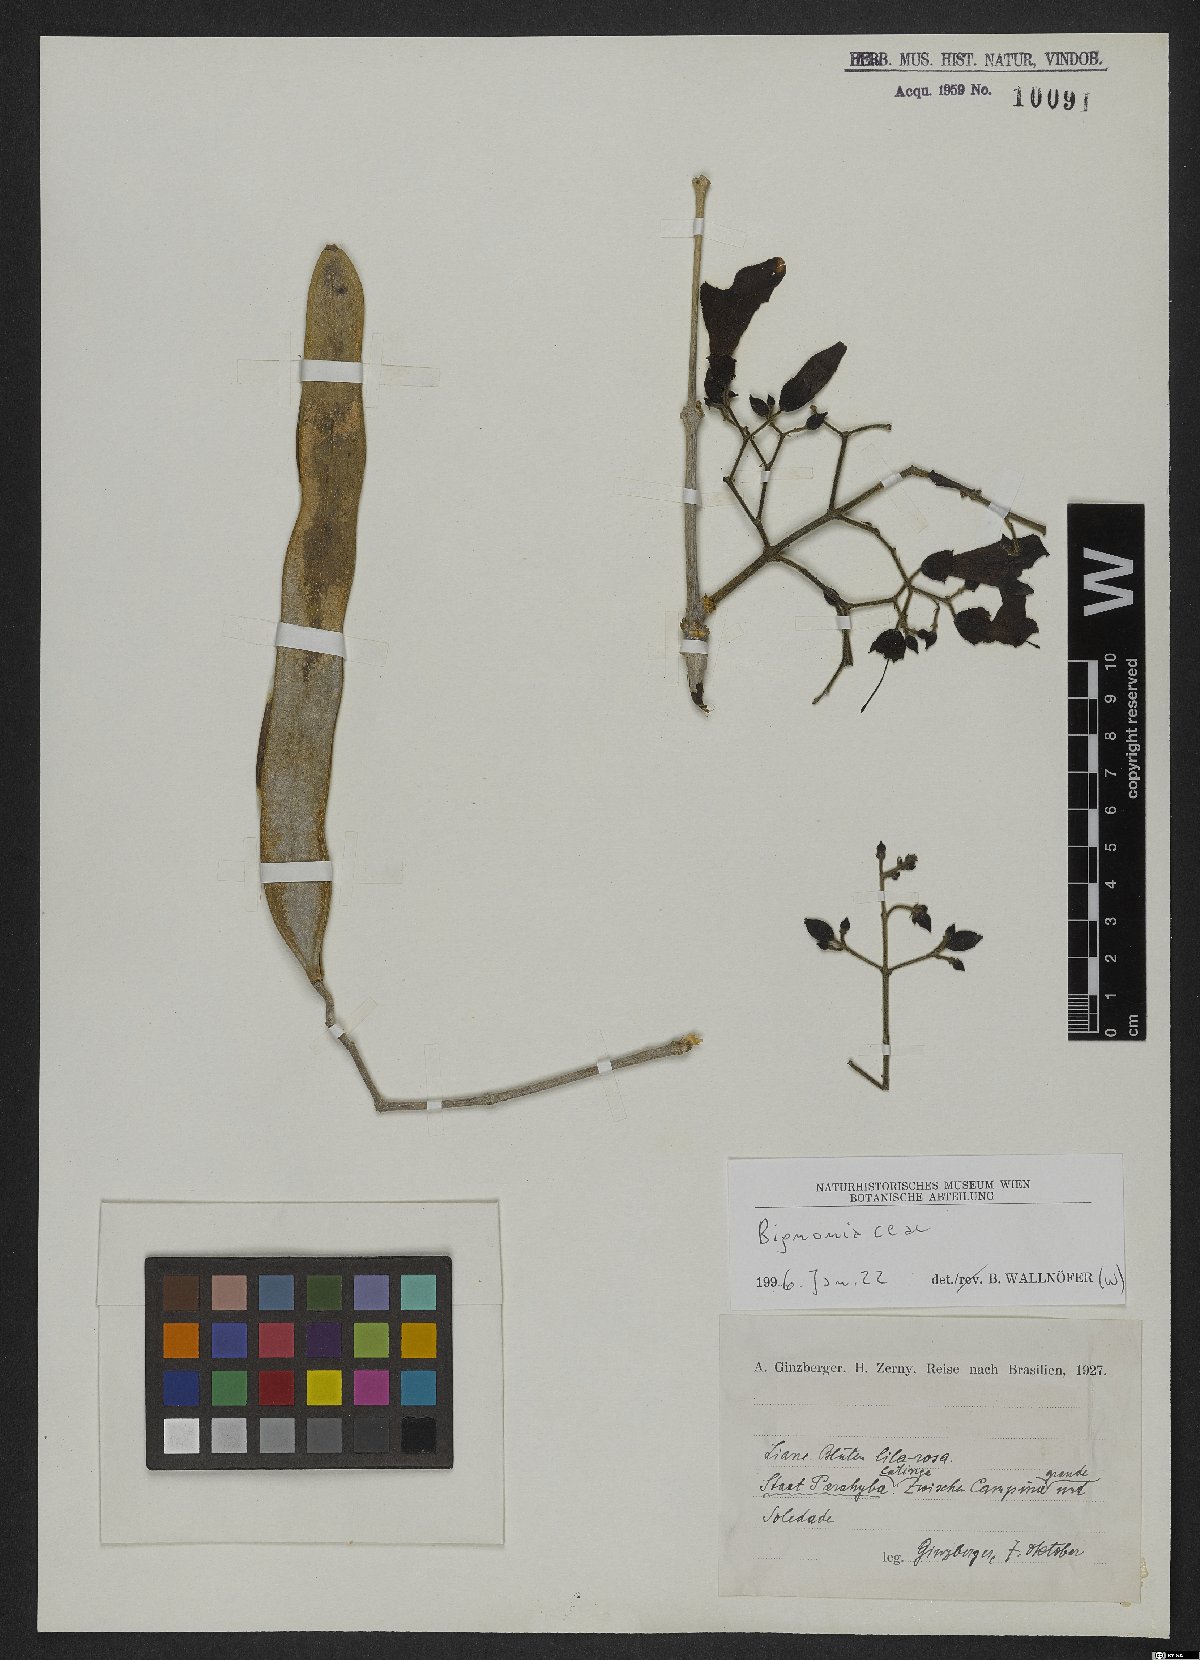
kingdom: Plantae
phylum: Tracheophyta
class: Magnoliopsida
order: Lamiales
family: Bignoniaceae
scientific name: Bignoniaceae
